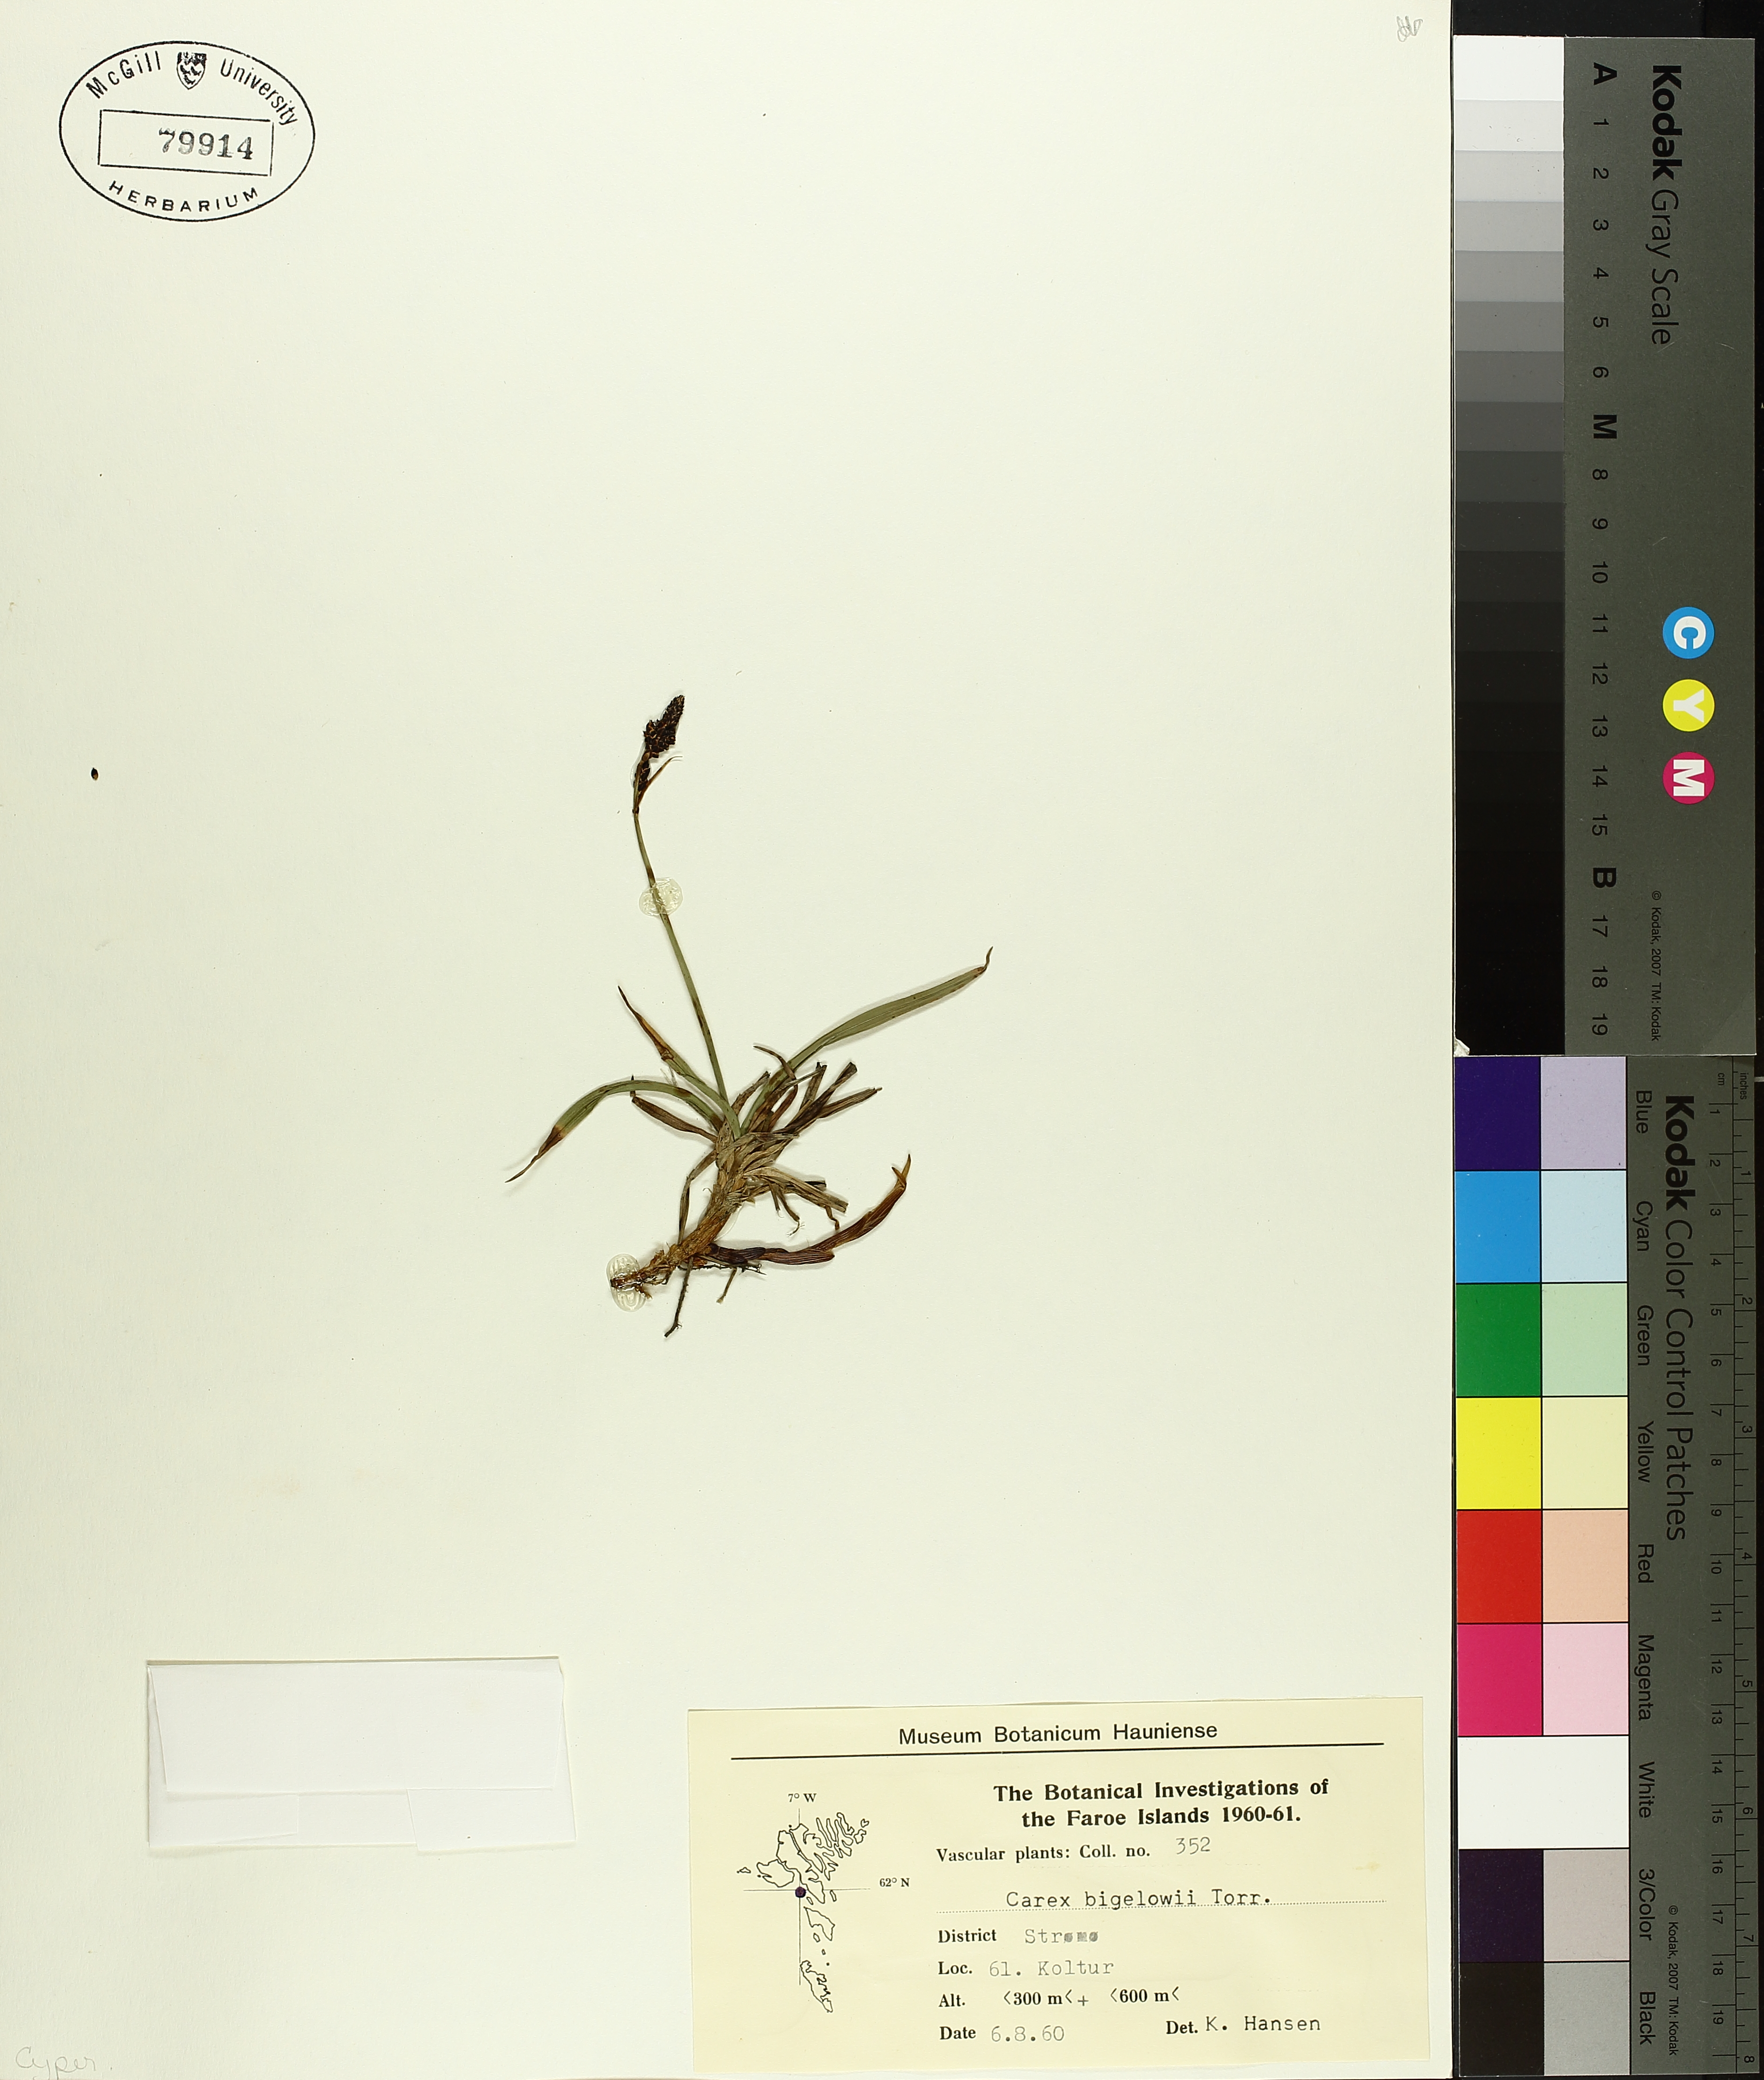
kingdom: Plantae
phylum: Tracheophyta
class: Liliopsida
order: Poales
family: Cyperaceae
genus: Carex
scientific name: Carex bigelowii
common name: Stiff sedge
